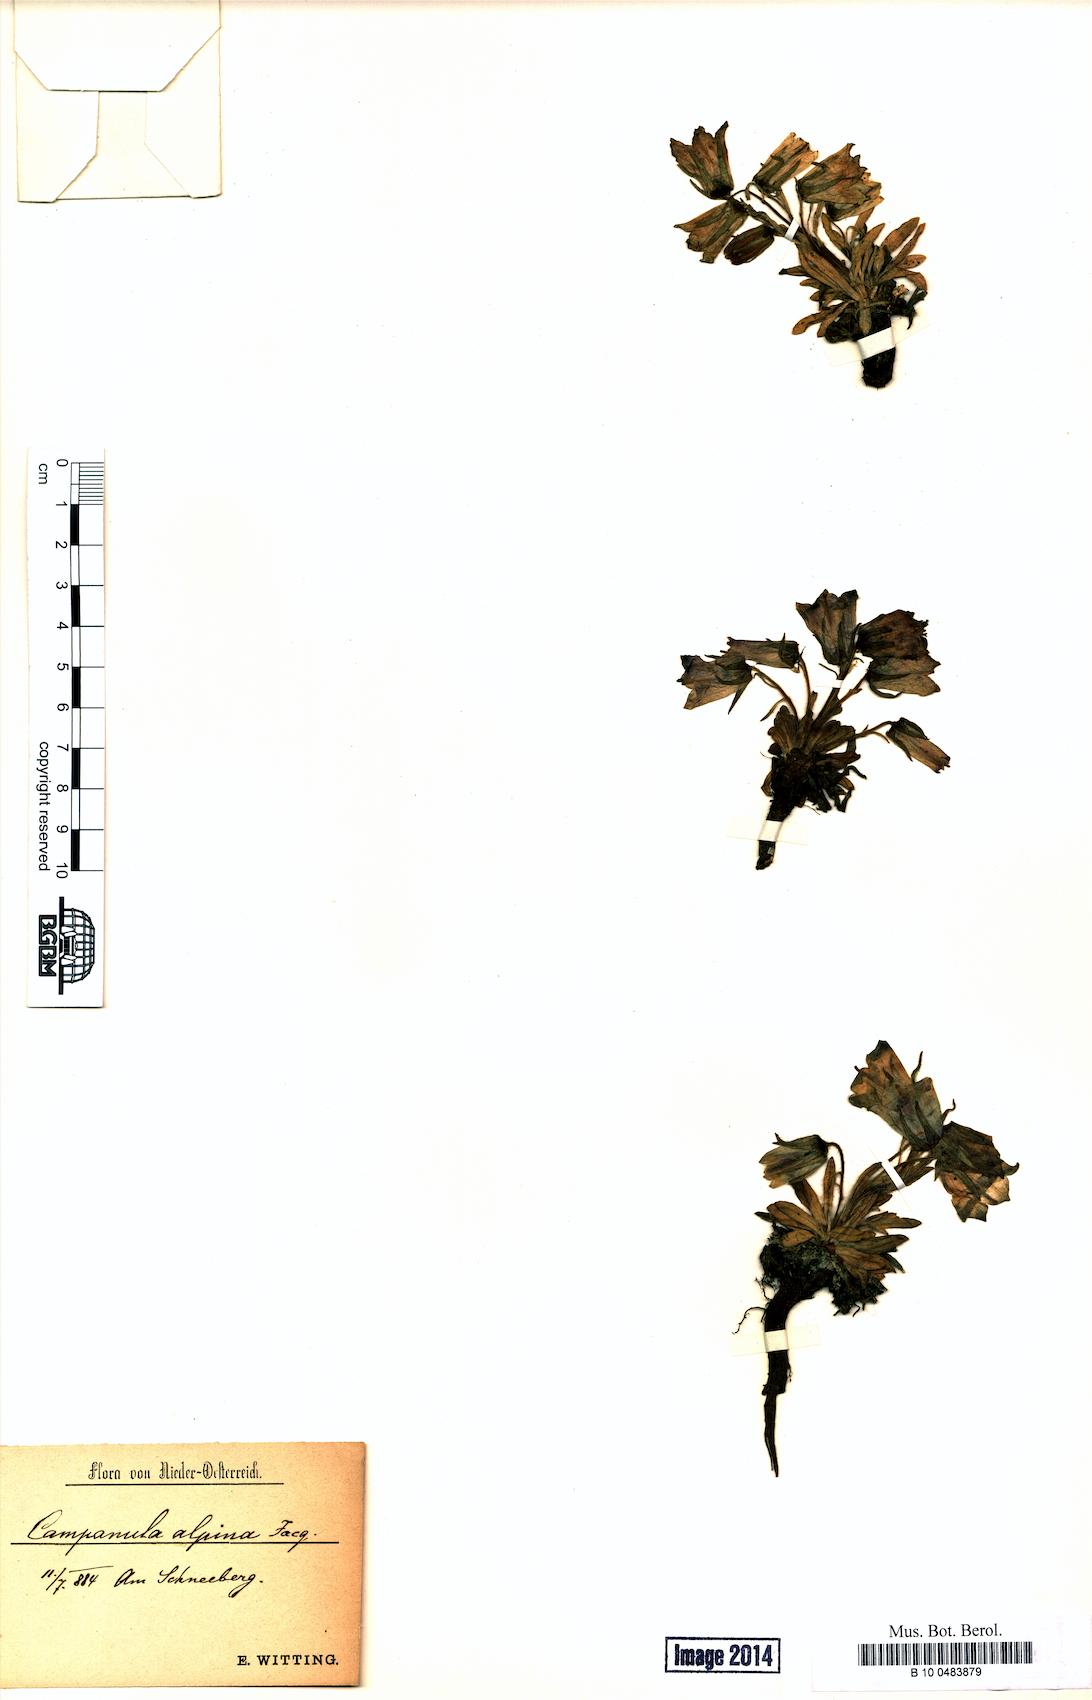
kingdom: Plantae
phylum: Tracheophyta
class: Magnoliopsida
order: Asterales
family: Campanulaceae
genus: Campanula
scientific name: Campanula alpina
